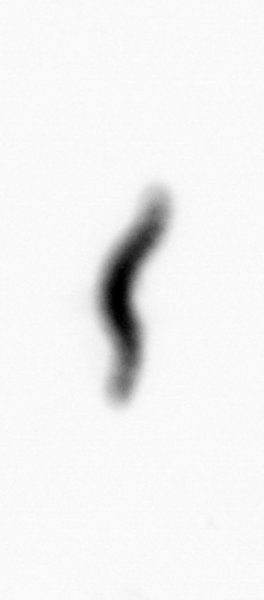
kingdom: Animalia
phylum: Annelida
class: Polychaeta
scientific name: Polychaeta
